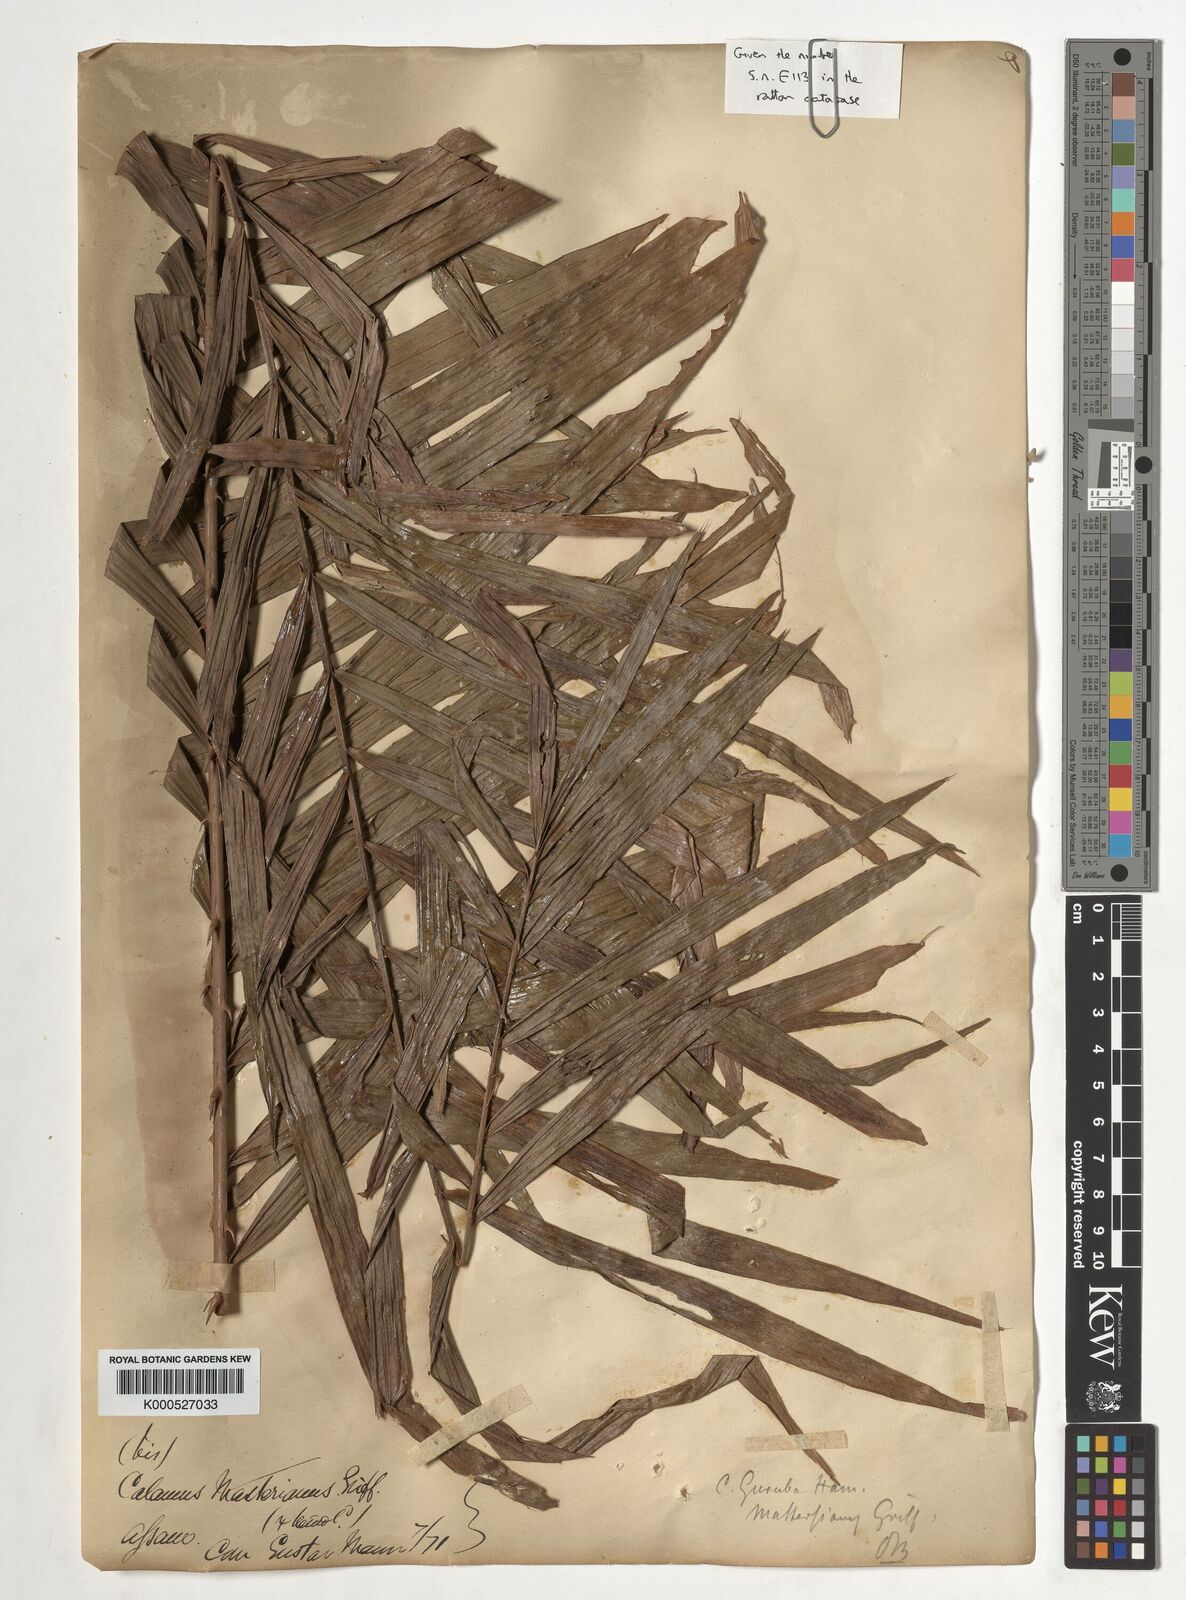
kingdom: Plantae
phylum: Tracheophyta
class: Liliopsida
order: Arecales
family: Arecaceae
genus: Calamus
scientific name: Calamus guruba
